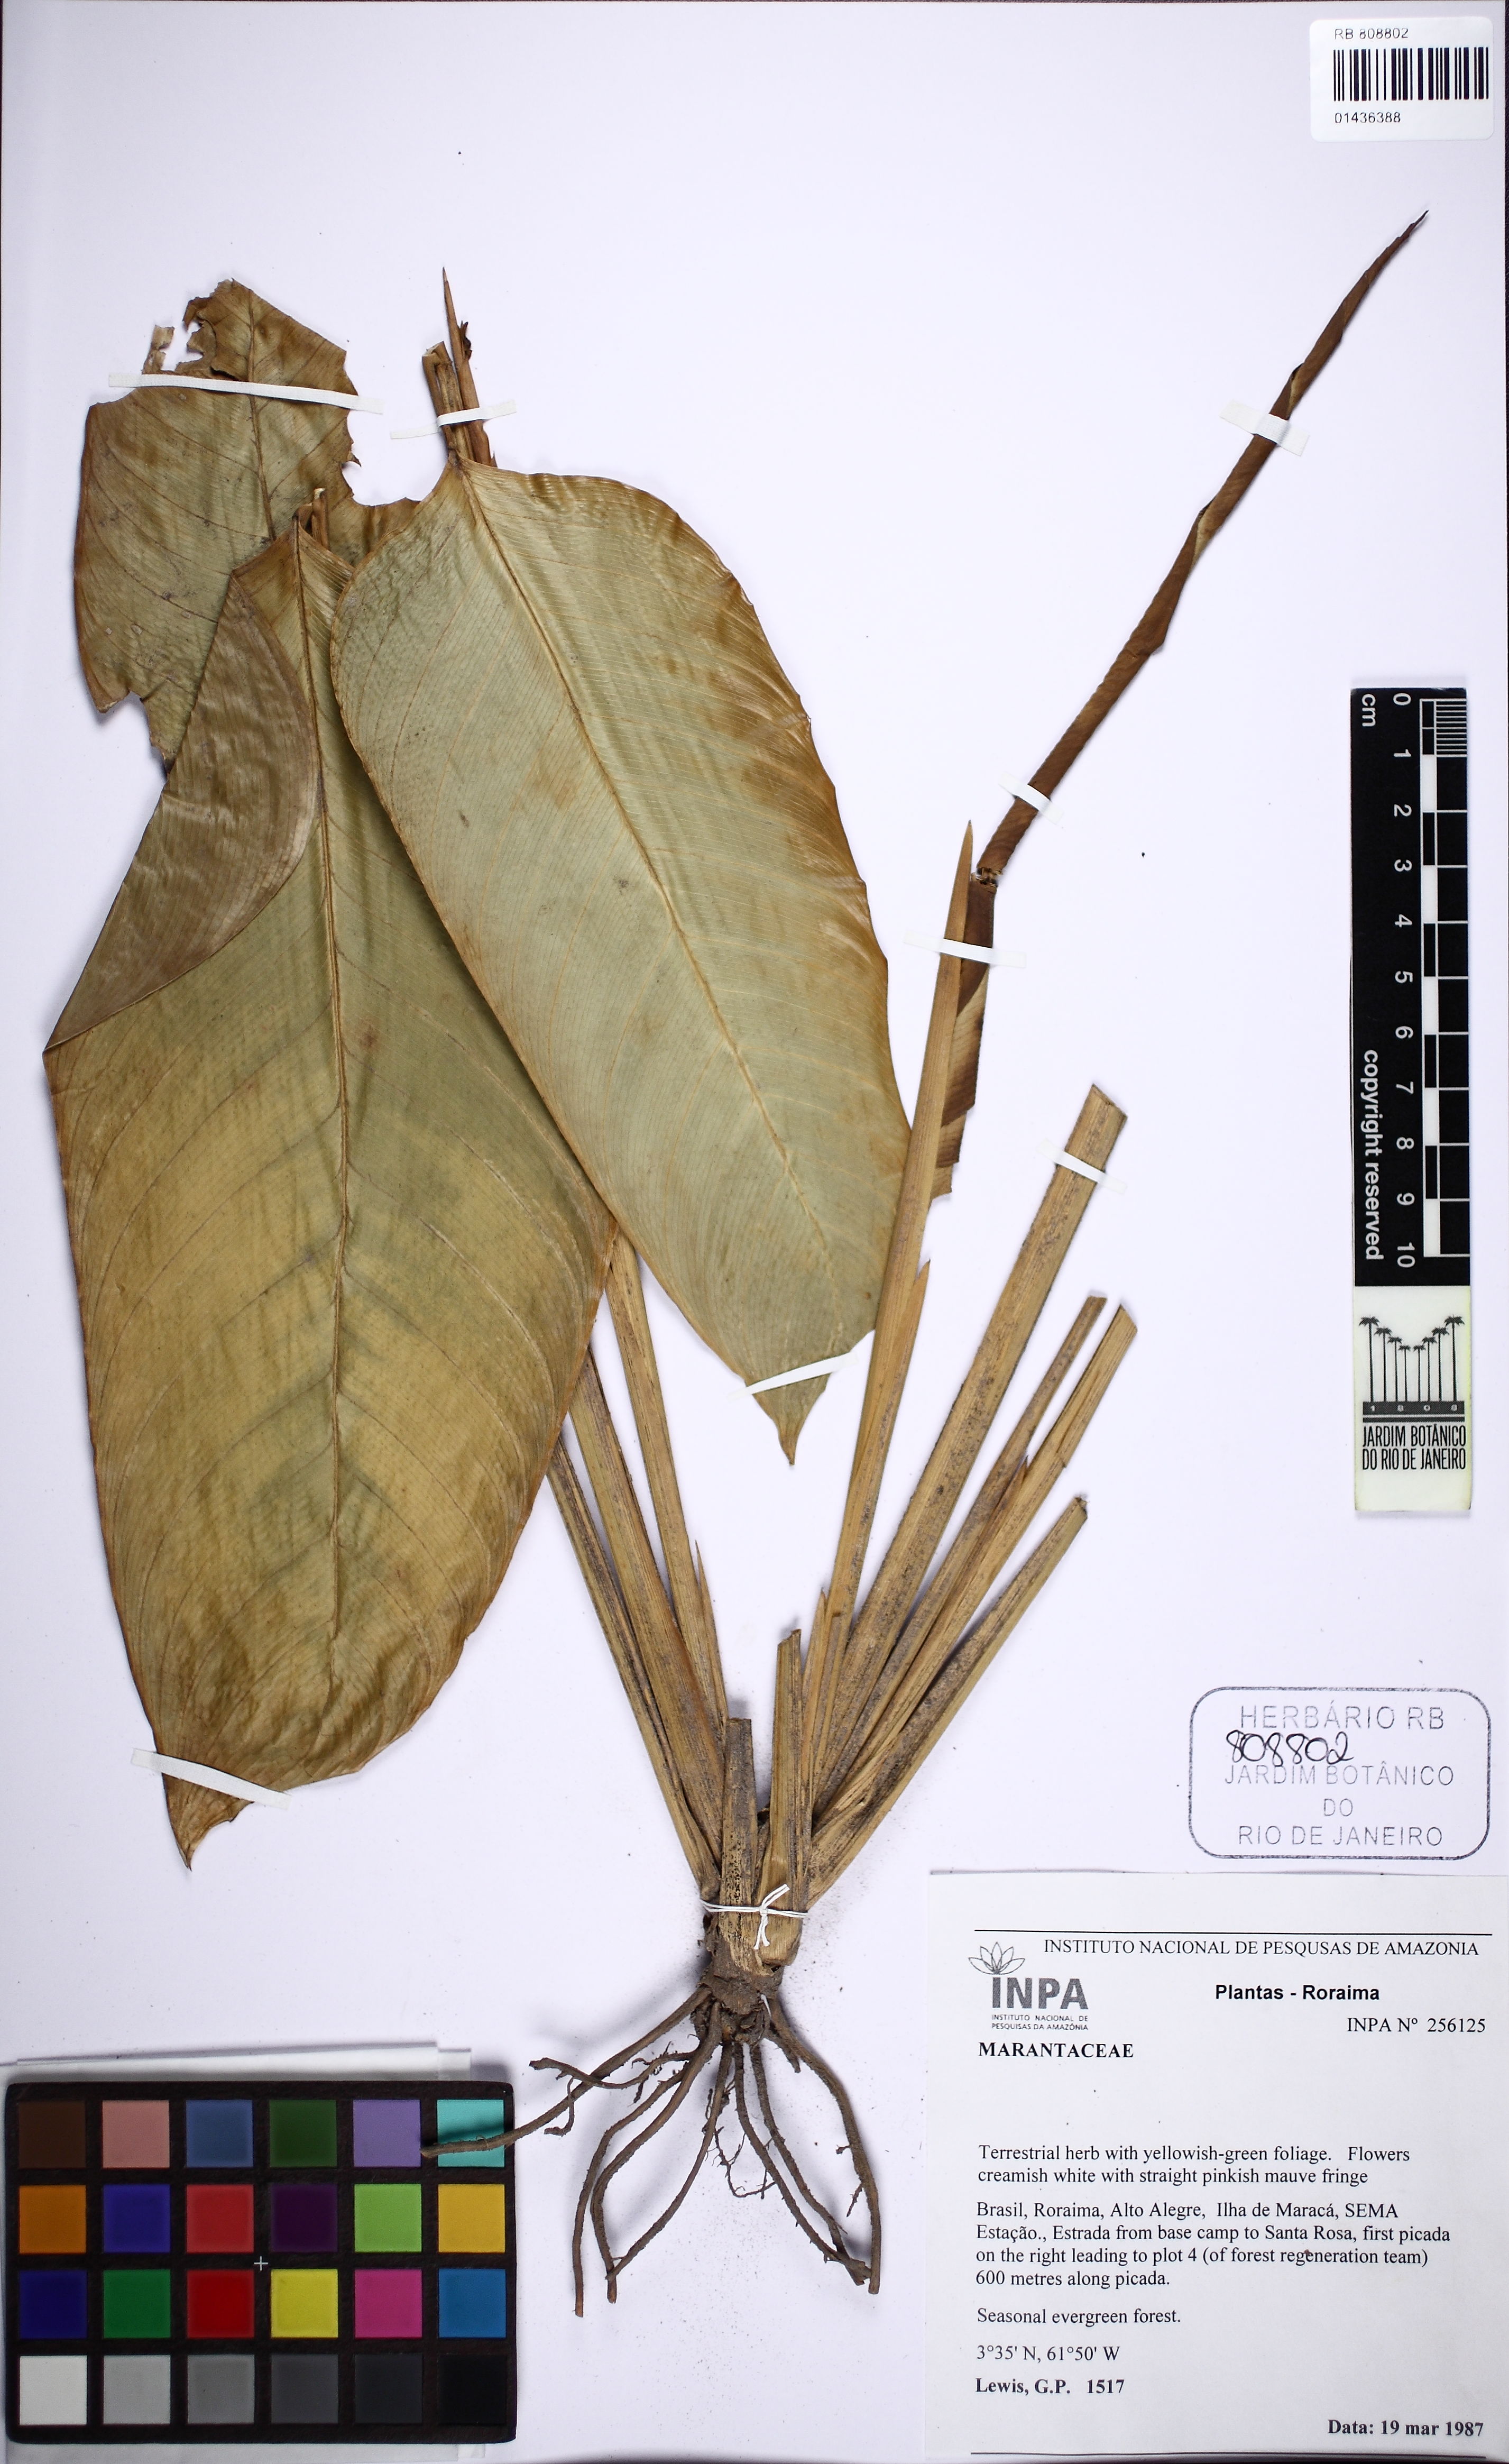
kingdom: Plantae
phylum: Tracheophyta
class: Liliopsida
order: Zingiberales
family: Marantaceae
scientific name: Marantaceae
